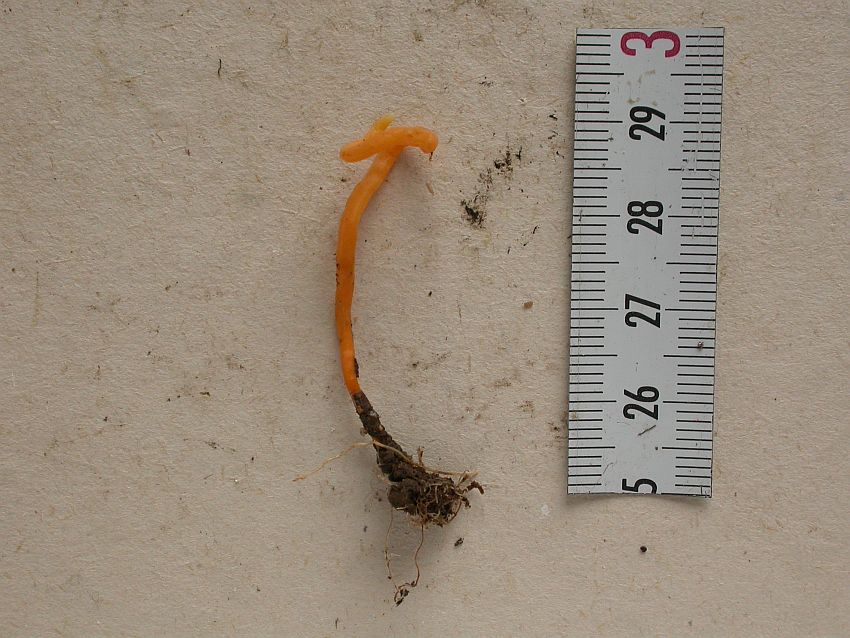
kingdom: Fungi
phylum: Basidiomycota
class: Agaricomycetes
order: Agaricales
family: Clavariaceae
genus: Clavulinopsis
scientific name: Clavulinopsis luteoalba
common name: abrikos-køllesvamp
